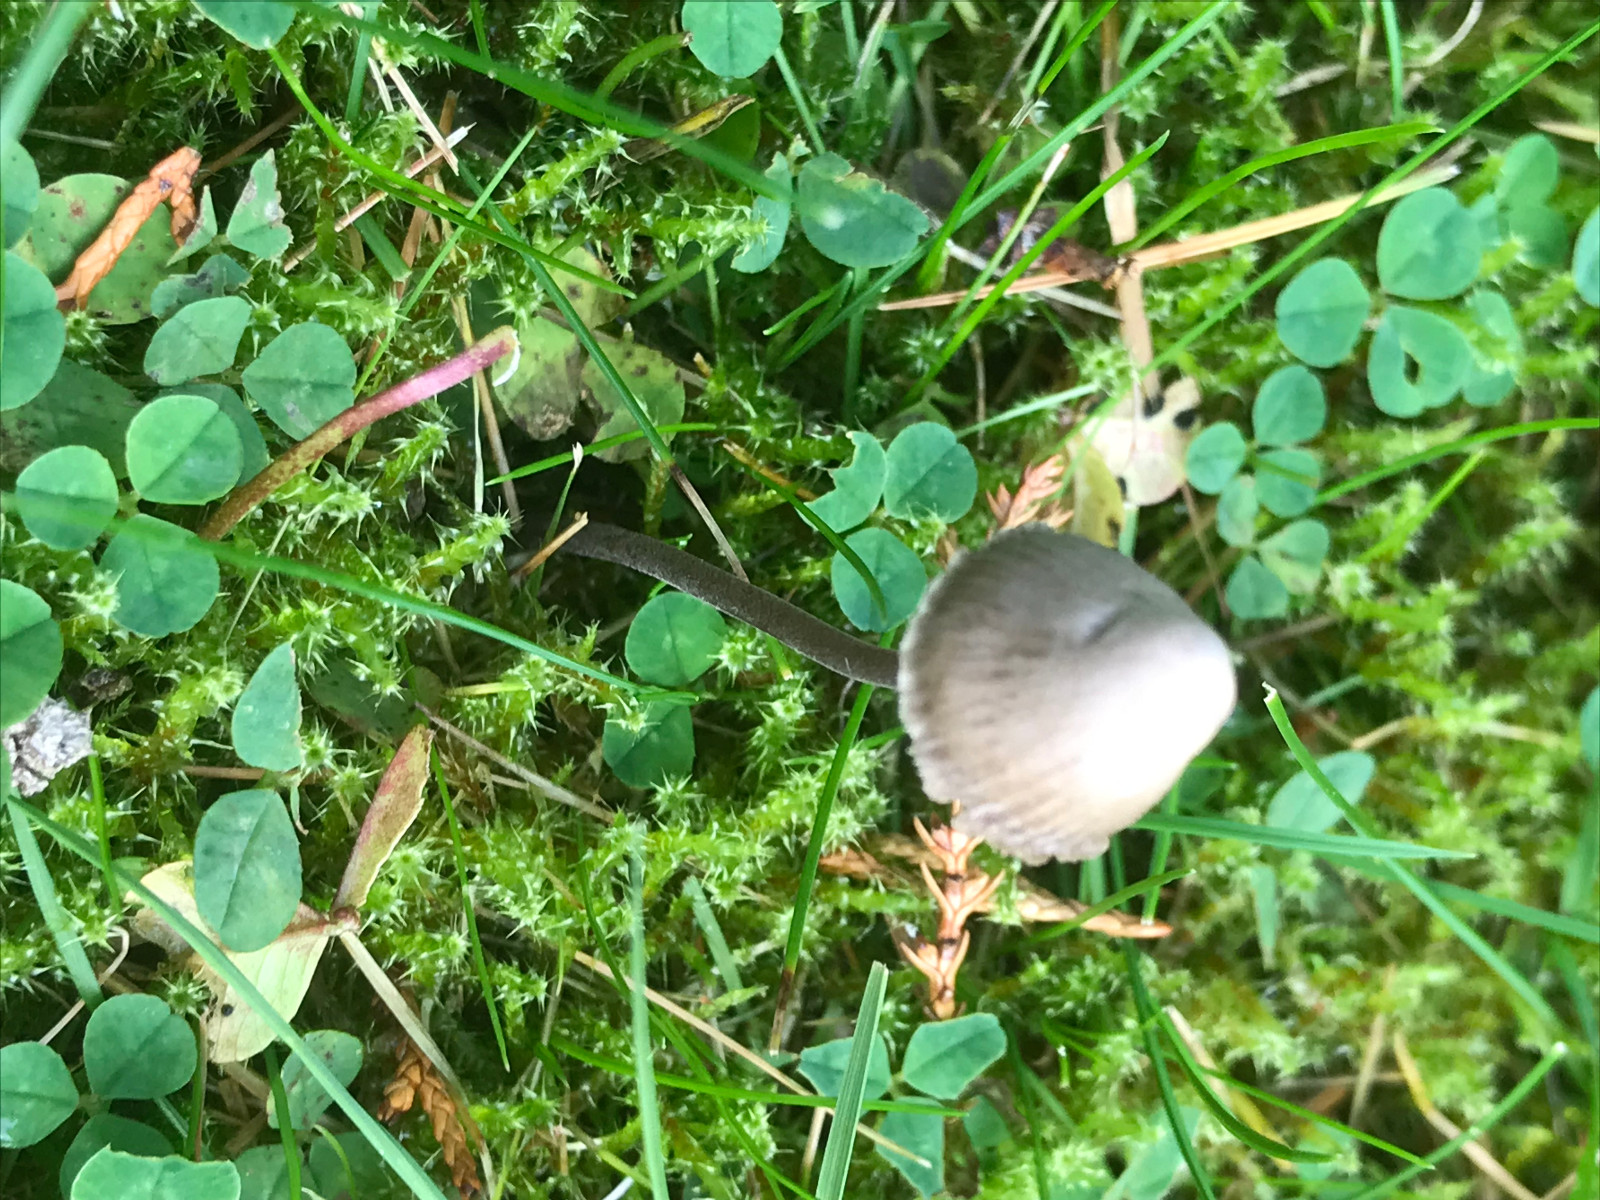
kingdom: Fungi
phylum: Basidiomycota
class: Agaricomycetes
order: Agaricales
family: Mycenaceae
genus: Mycena
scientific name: Mycena
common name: huesvamp
